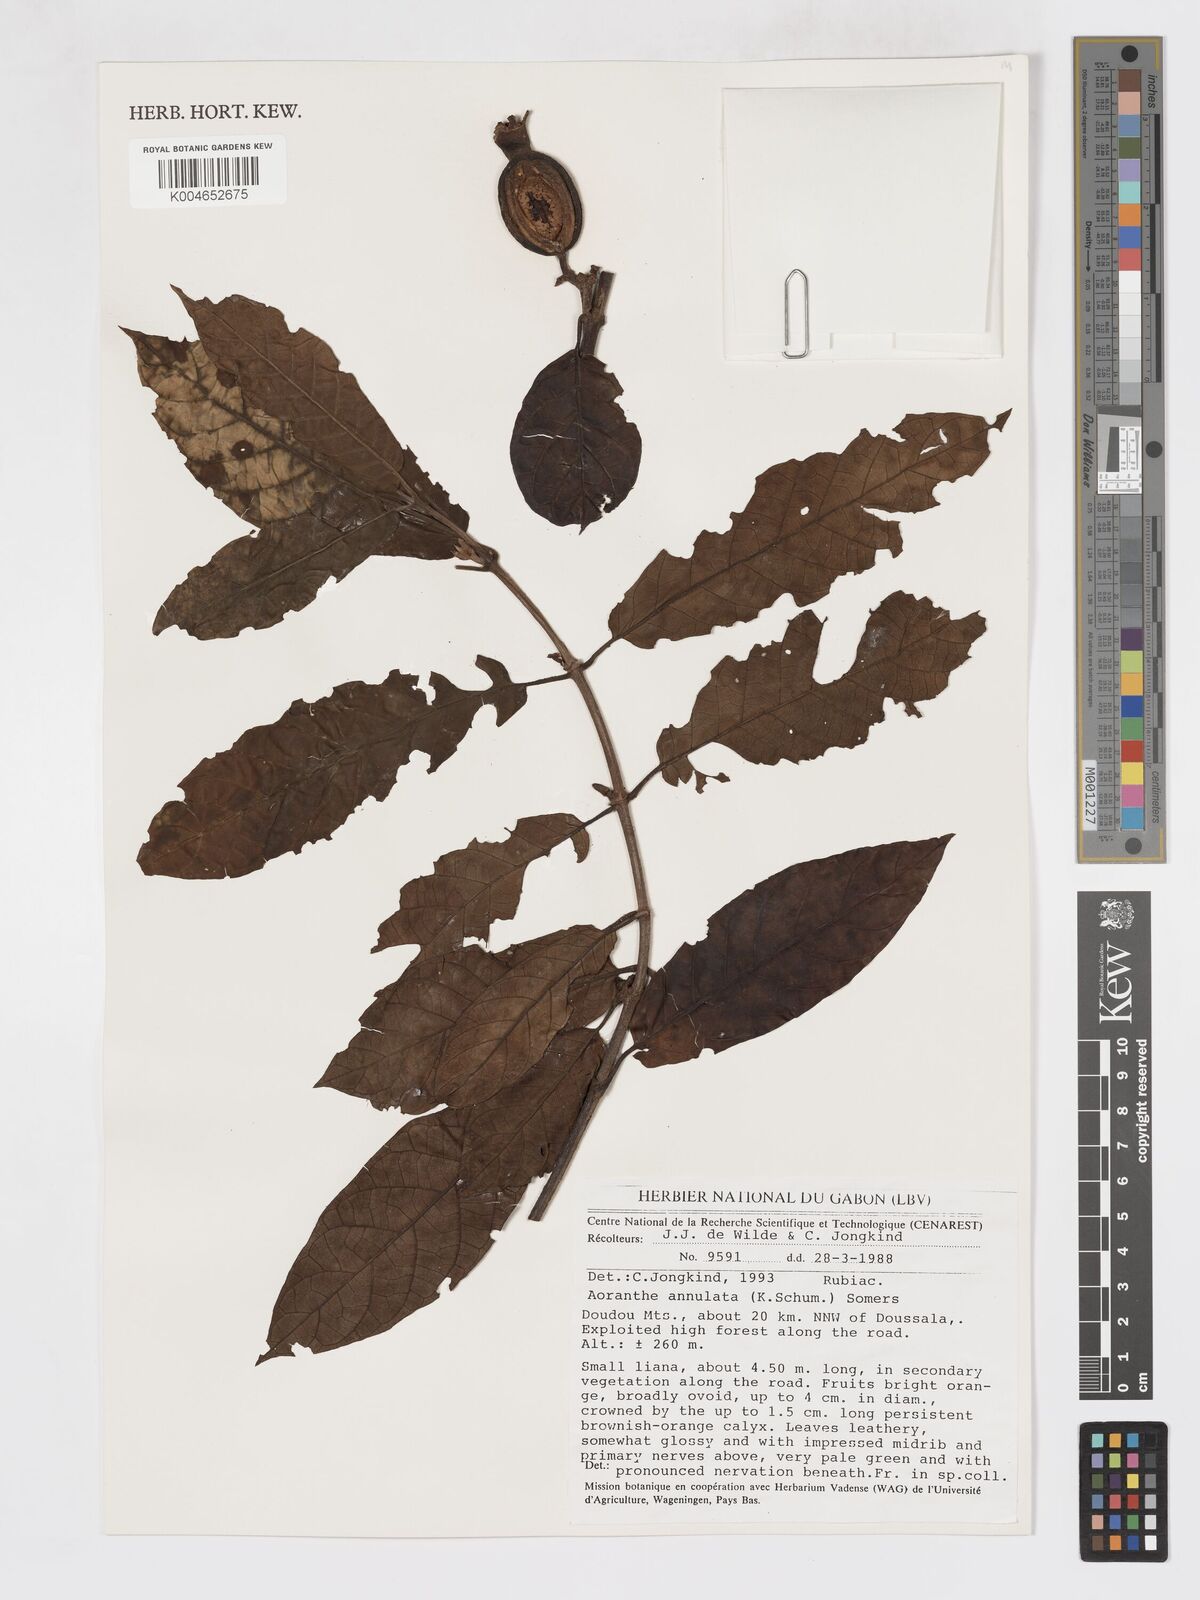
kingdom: Plantae
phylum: Tracheophyta
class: Magnoliopsida
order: Gentianales
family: Rubiaceae
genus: Aoranthe
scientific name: Aoranthe annulata
